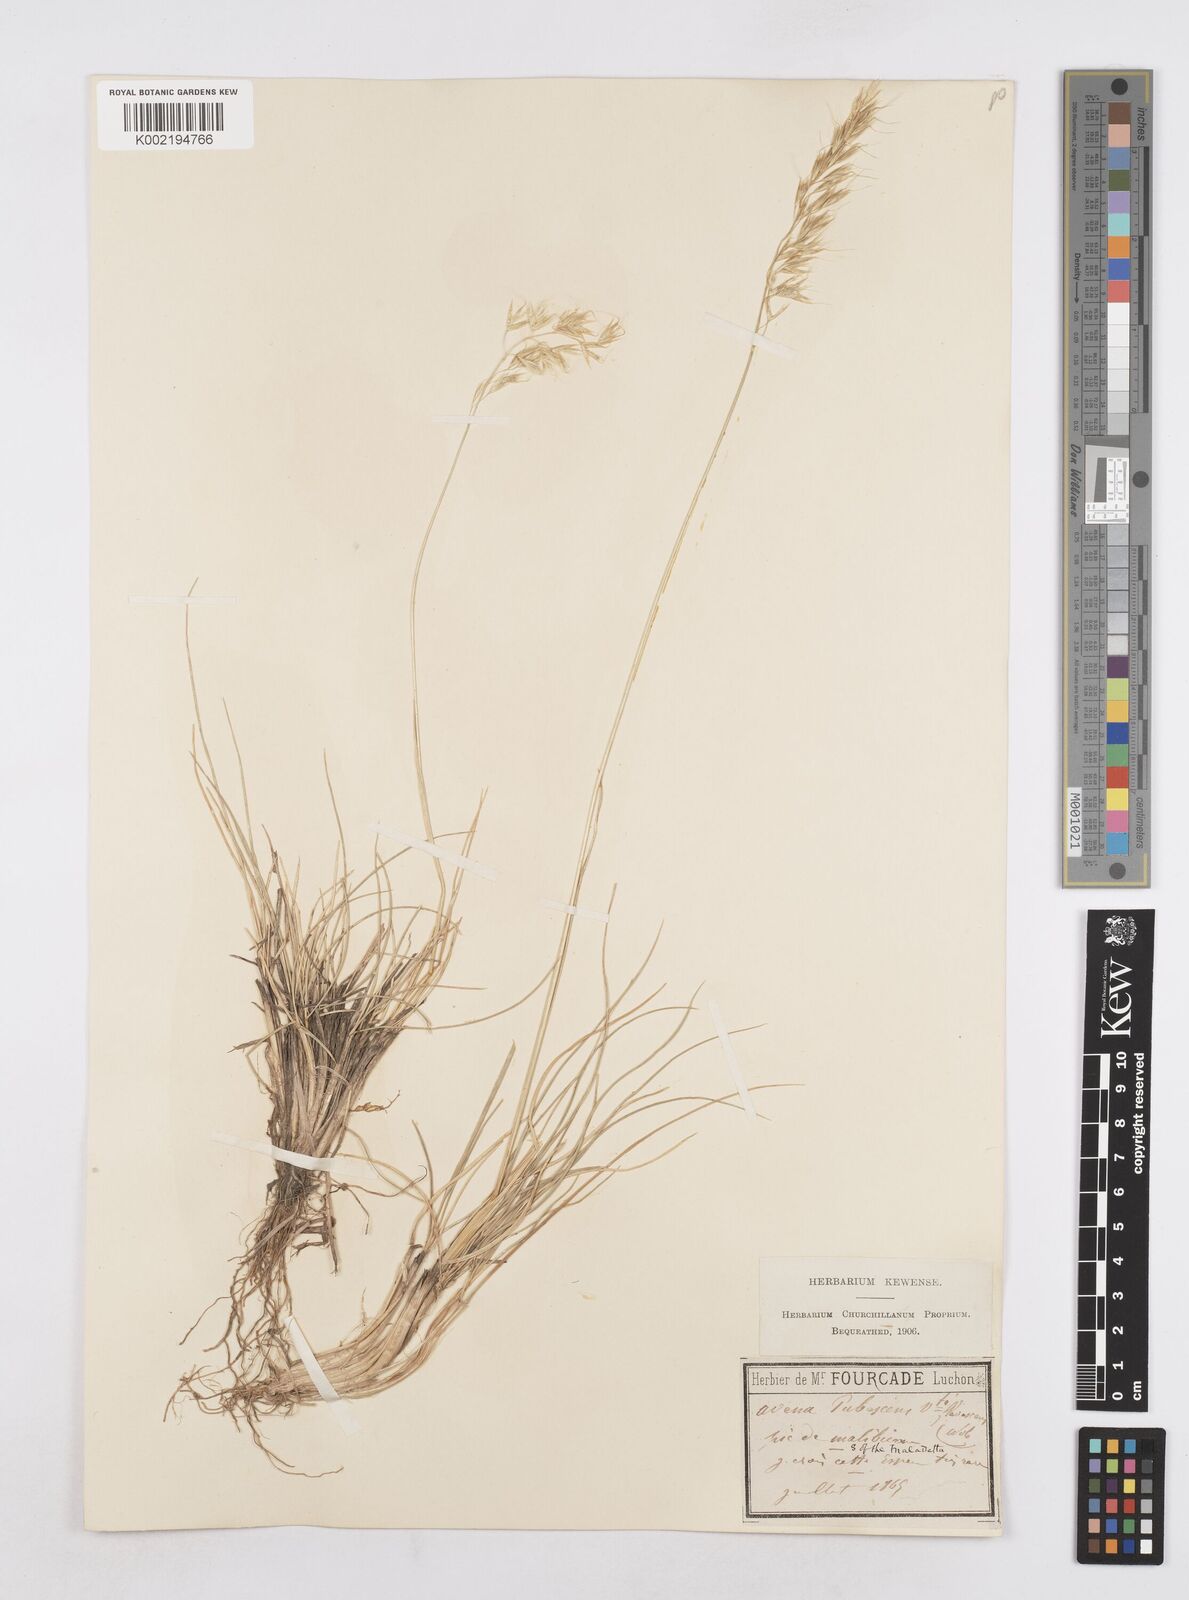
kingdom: Plantae
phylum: Tracheophyta
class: Liliopsida
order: Poales
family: Poaceae
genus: Avenula
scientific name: Avenula pubescens
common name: Downy alpine oatgrass
